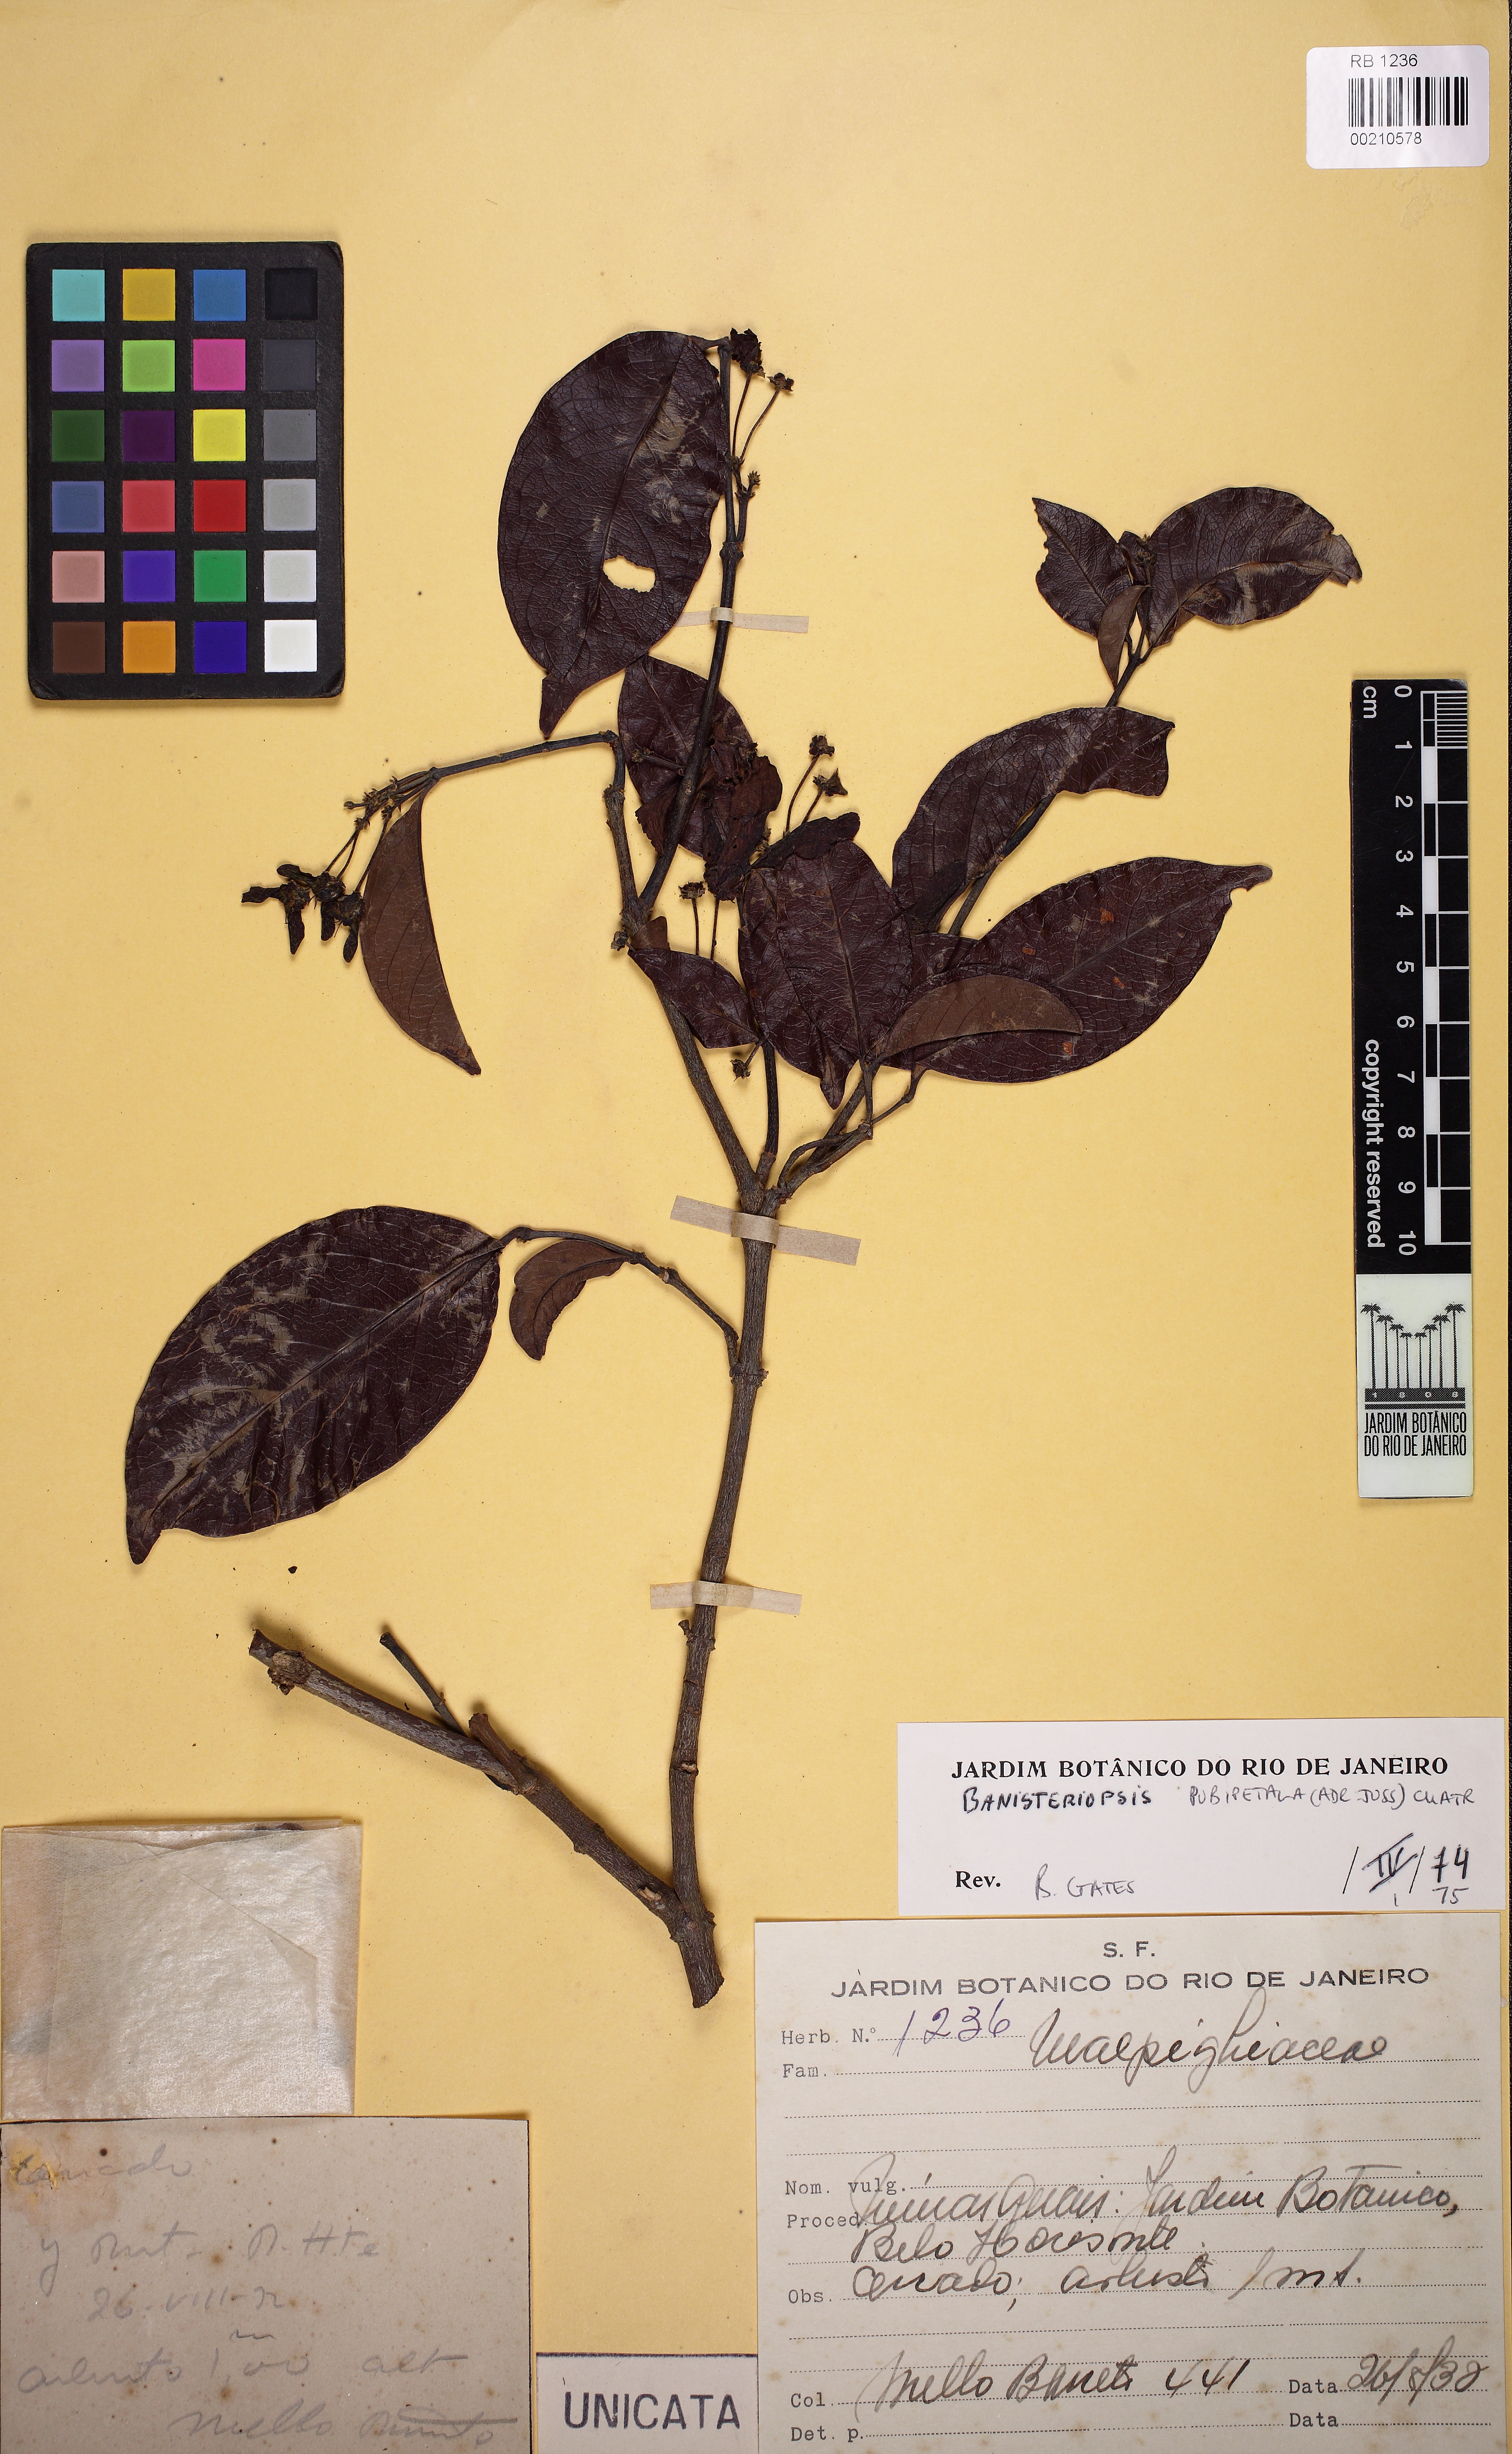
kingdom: Plantae
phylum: Tracheophyta
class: Magnoliopsida
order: Malpighiales
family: Malpighiaceae
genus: Diplopterys
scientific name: Diplopterys pubipetala
